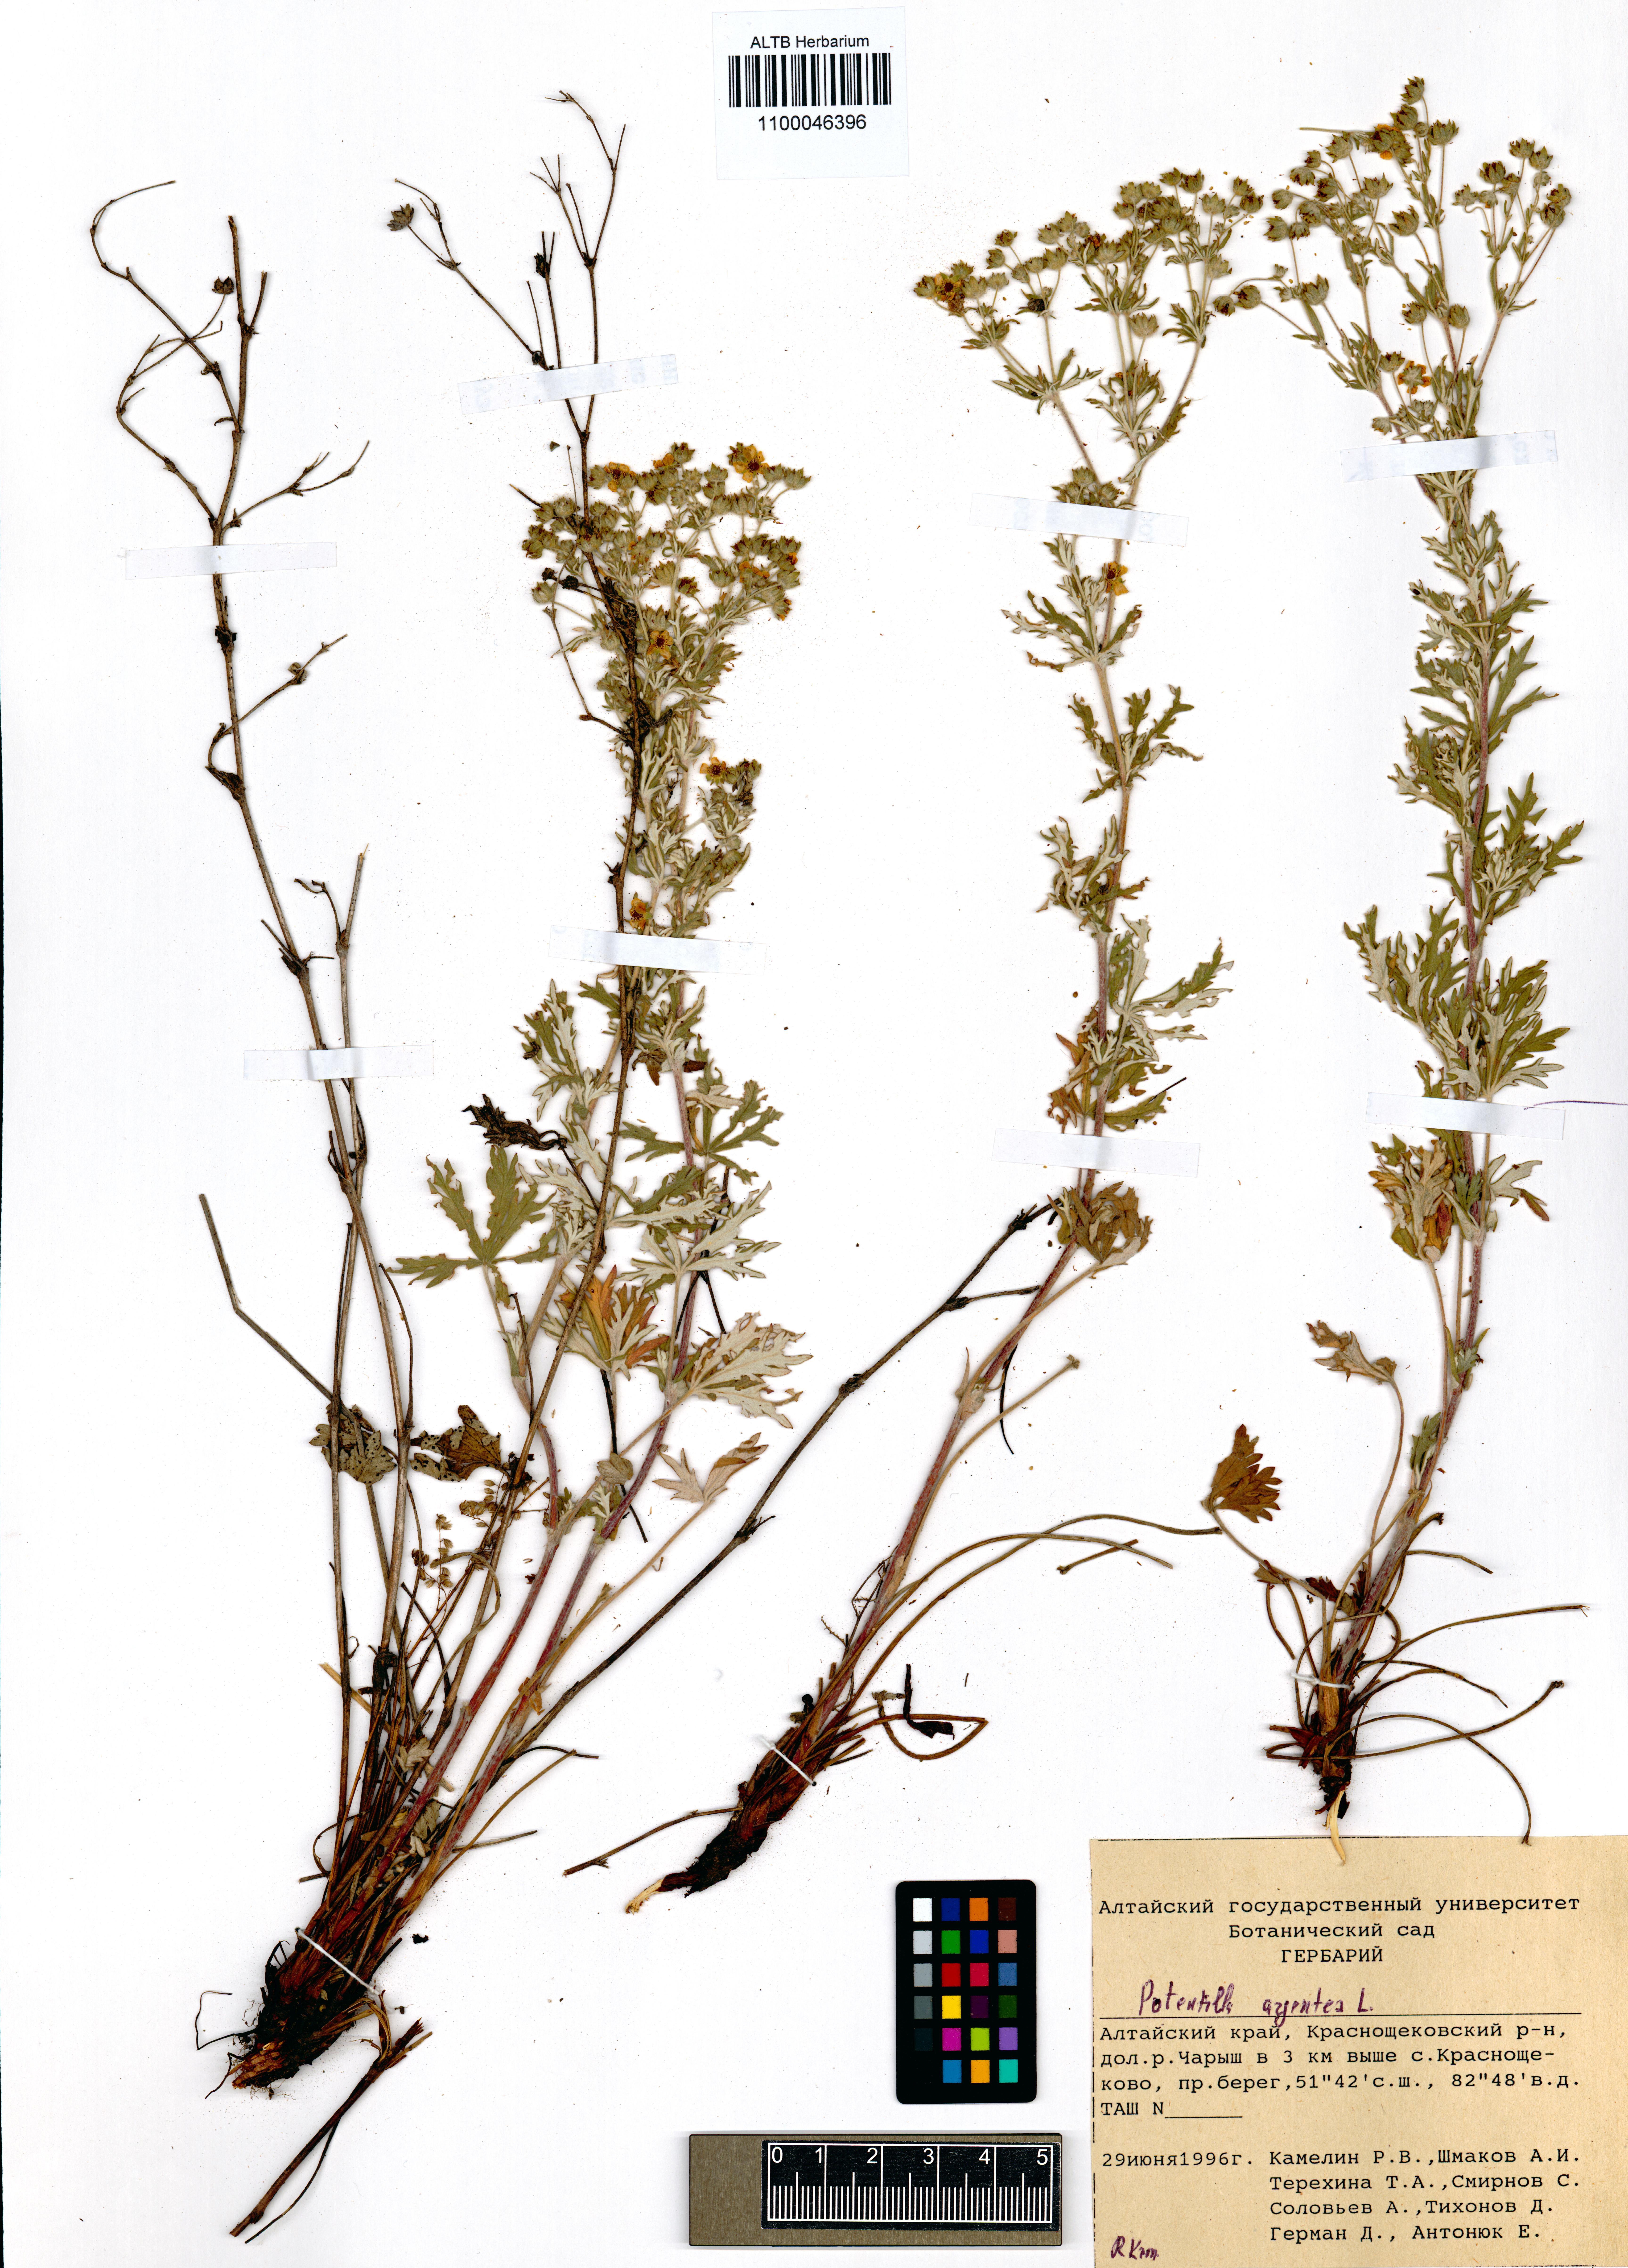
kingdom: Plantae
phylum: Tracheophyta
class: Magnoliopsida
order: Rosales
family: Rosaceae
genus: Potentilla
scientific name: Potentilla argentea
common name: Hoary cinquefoil
